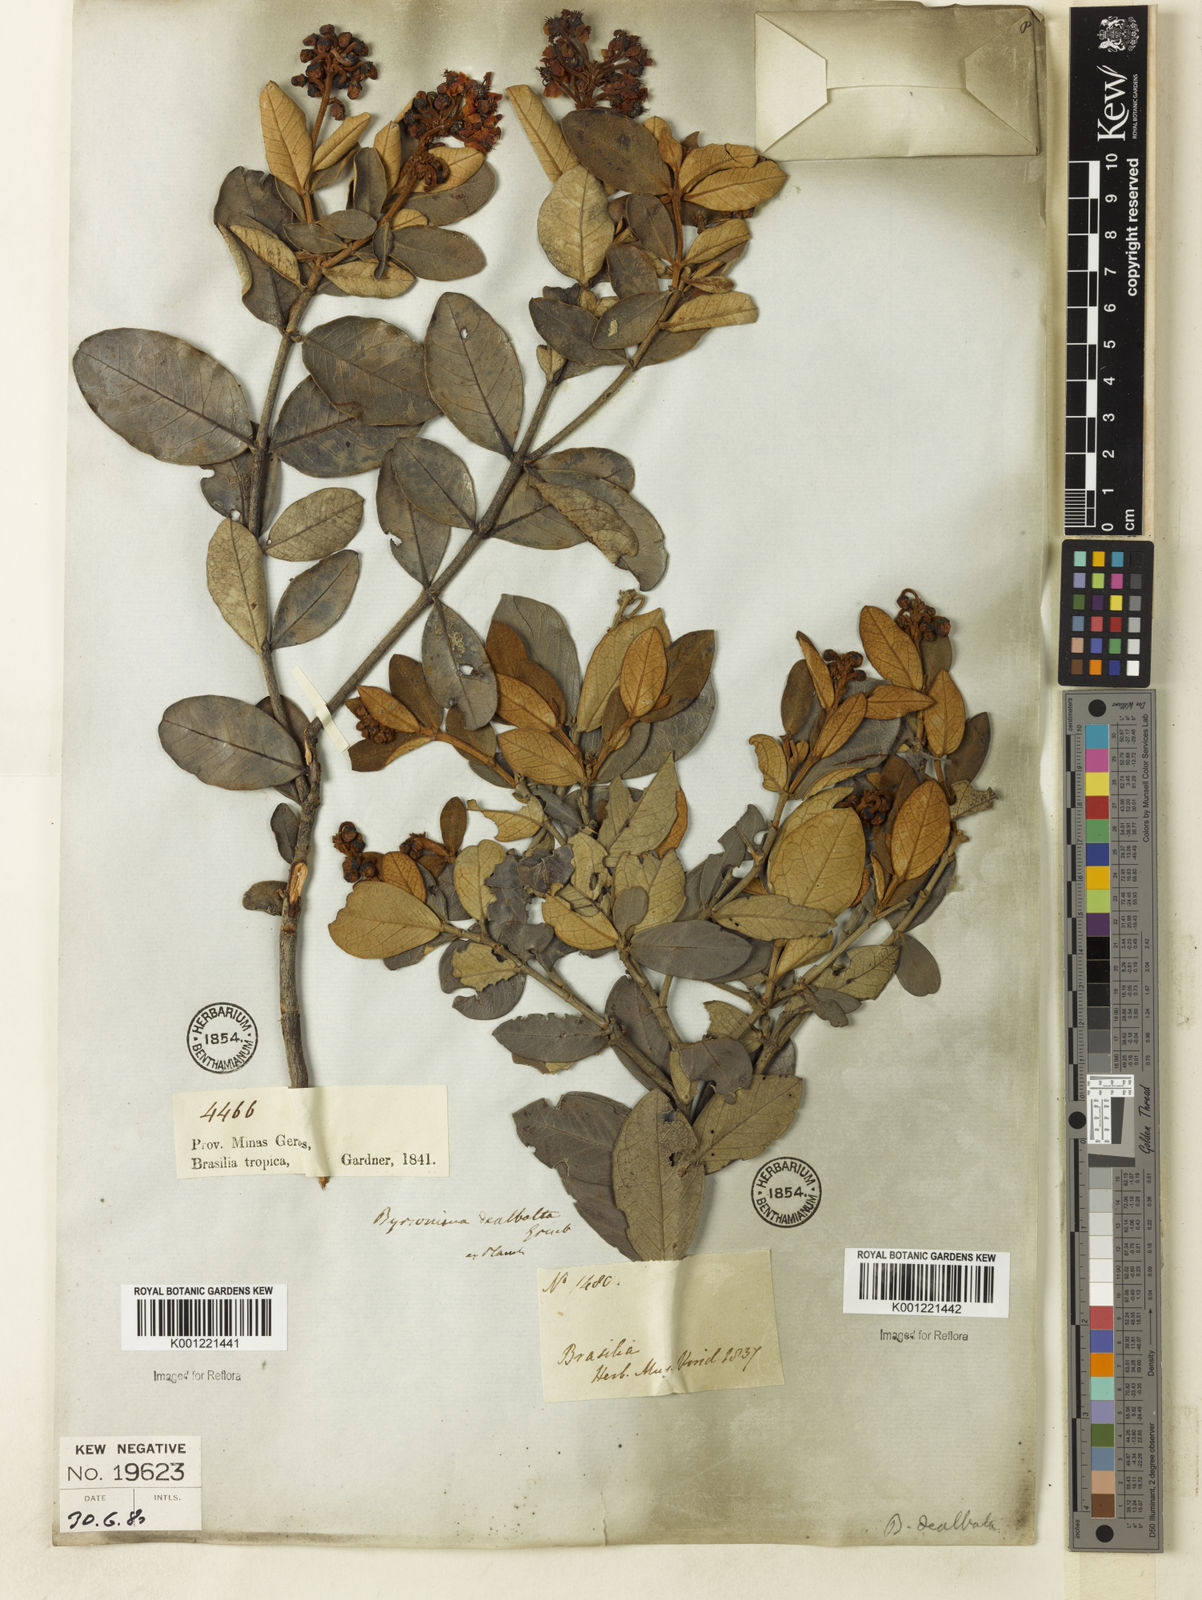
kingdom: Plantae
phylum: Tracheophyta
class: Magnoliopsida
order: Malpighiales
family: Malpighiaceae
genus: Byrsonima
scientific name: Byrsonima dealbata
